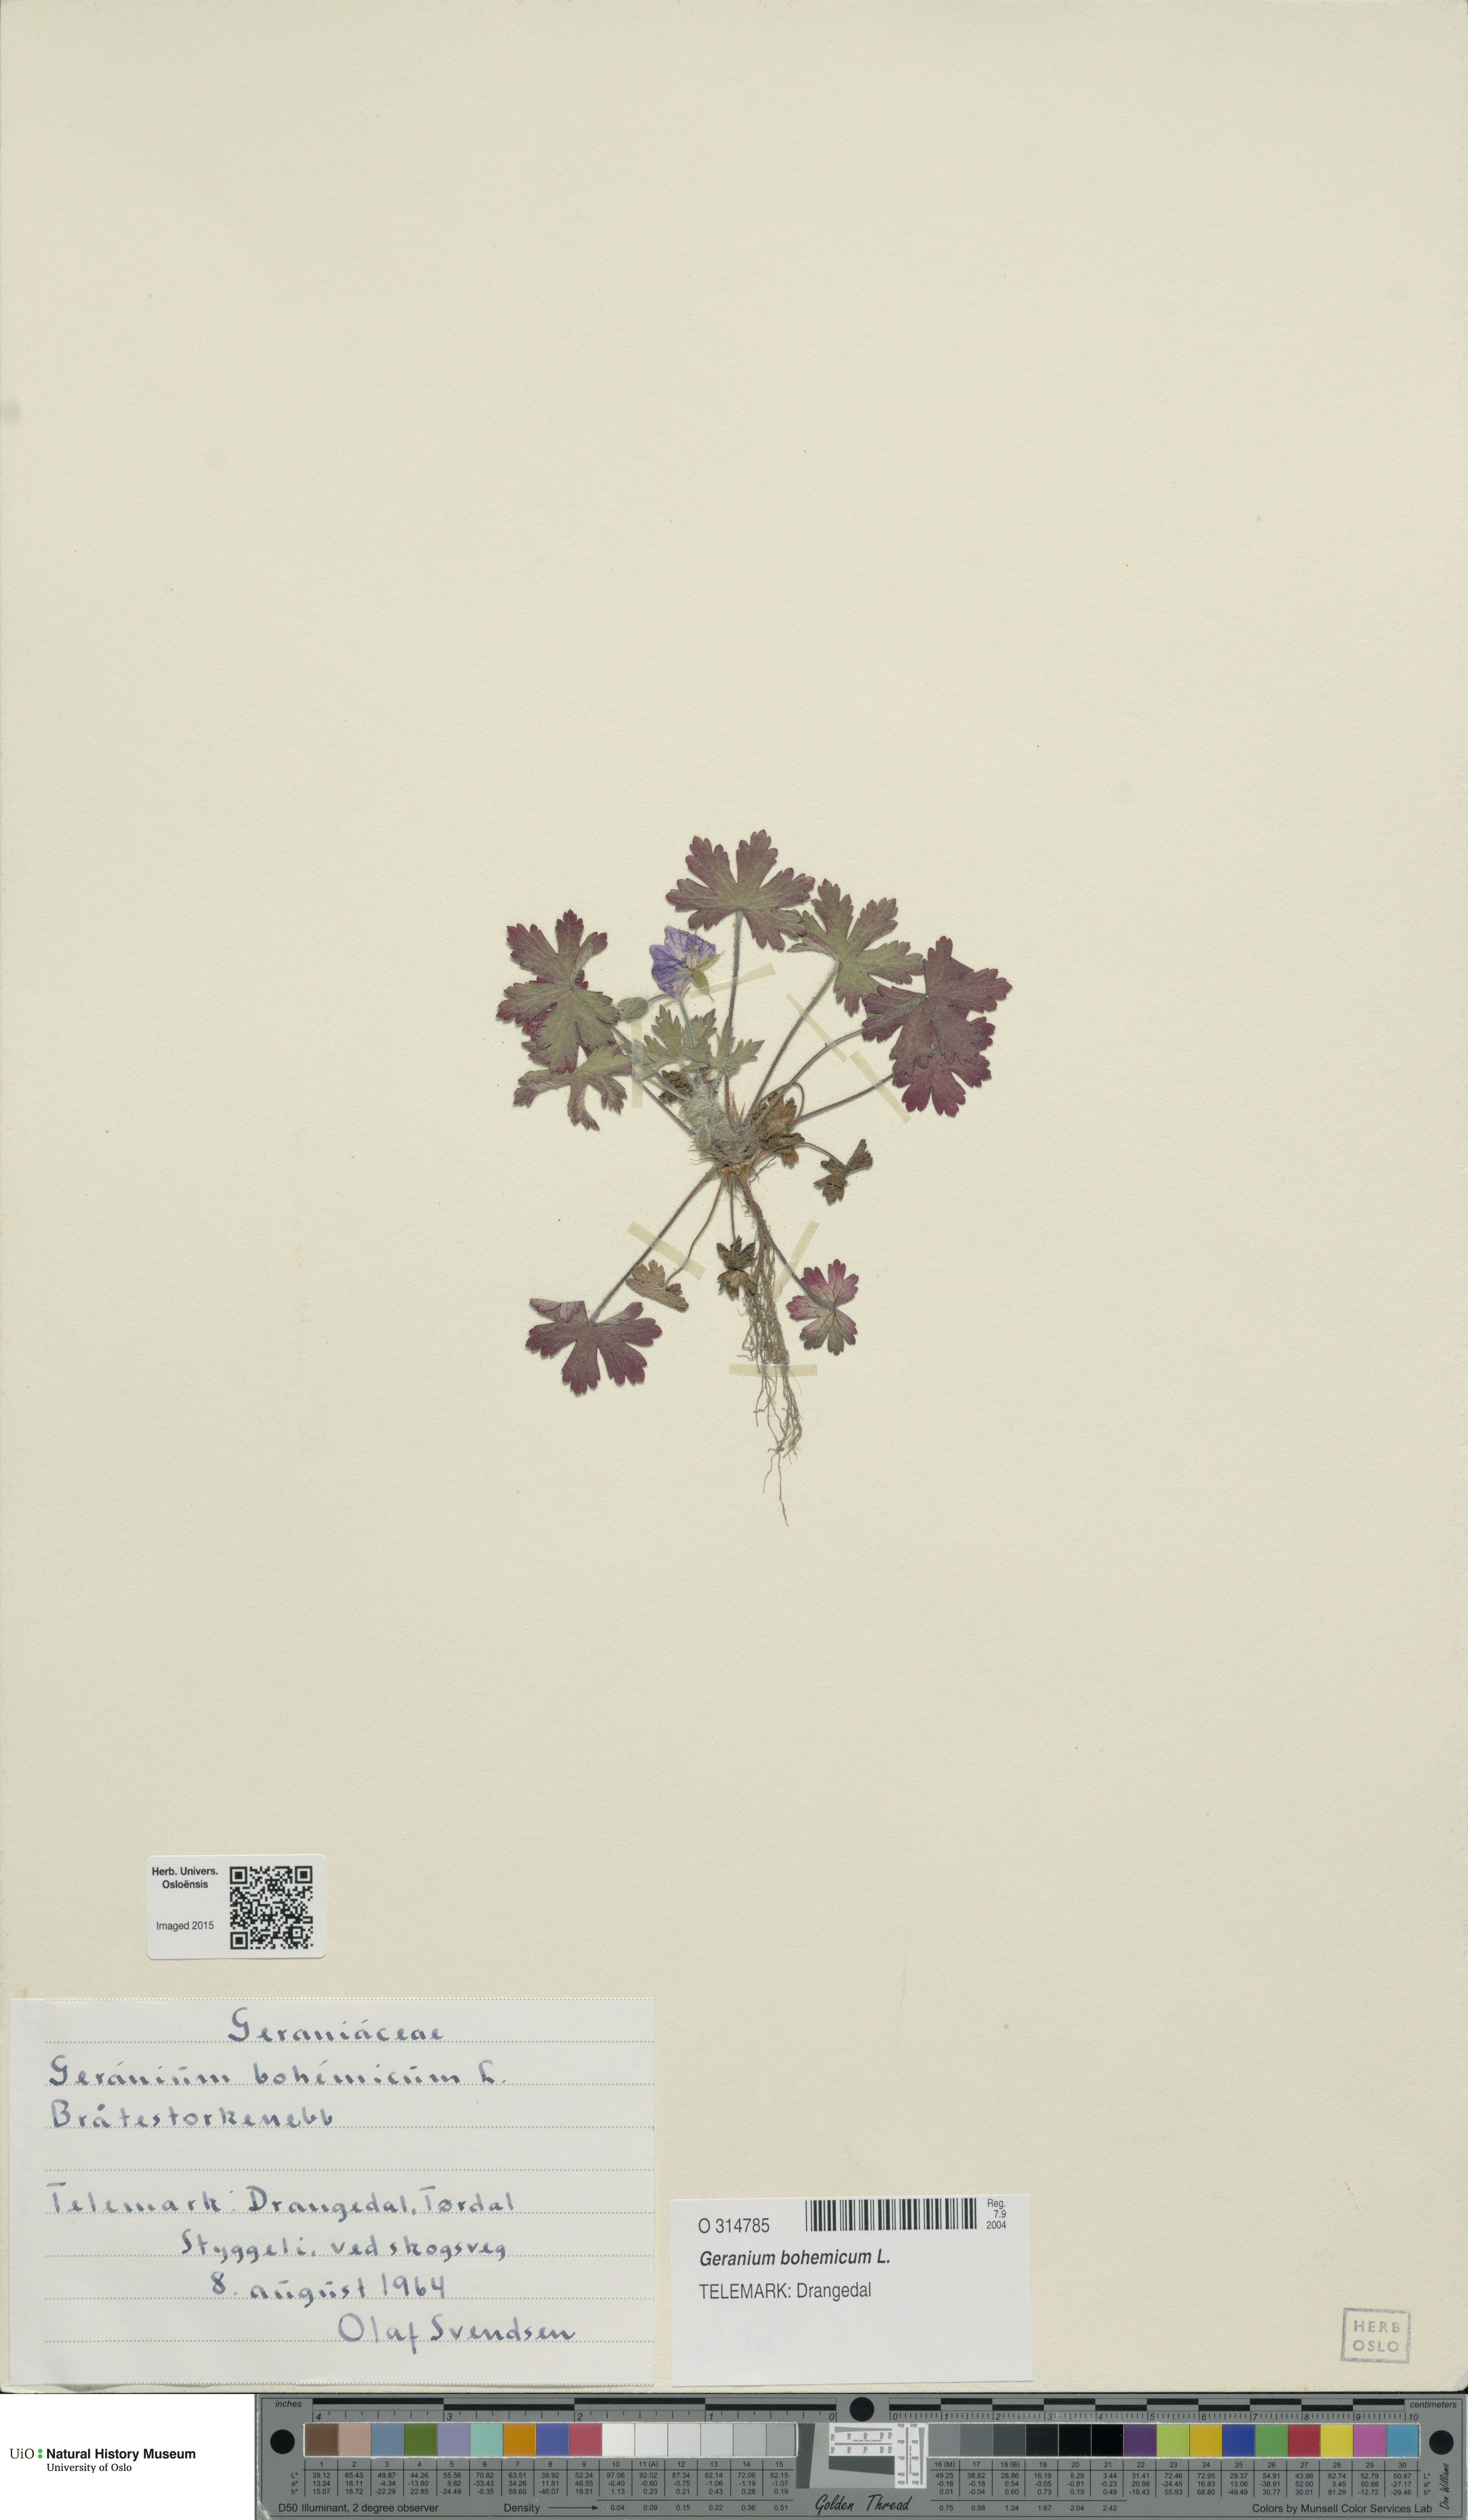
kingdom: Plantae
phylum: Tracheophyta
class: Magnoliopsida
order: Geraniales
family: Geraniaceae
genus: Geranium
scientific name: Geranium bohemicum
